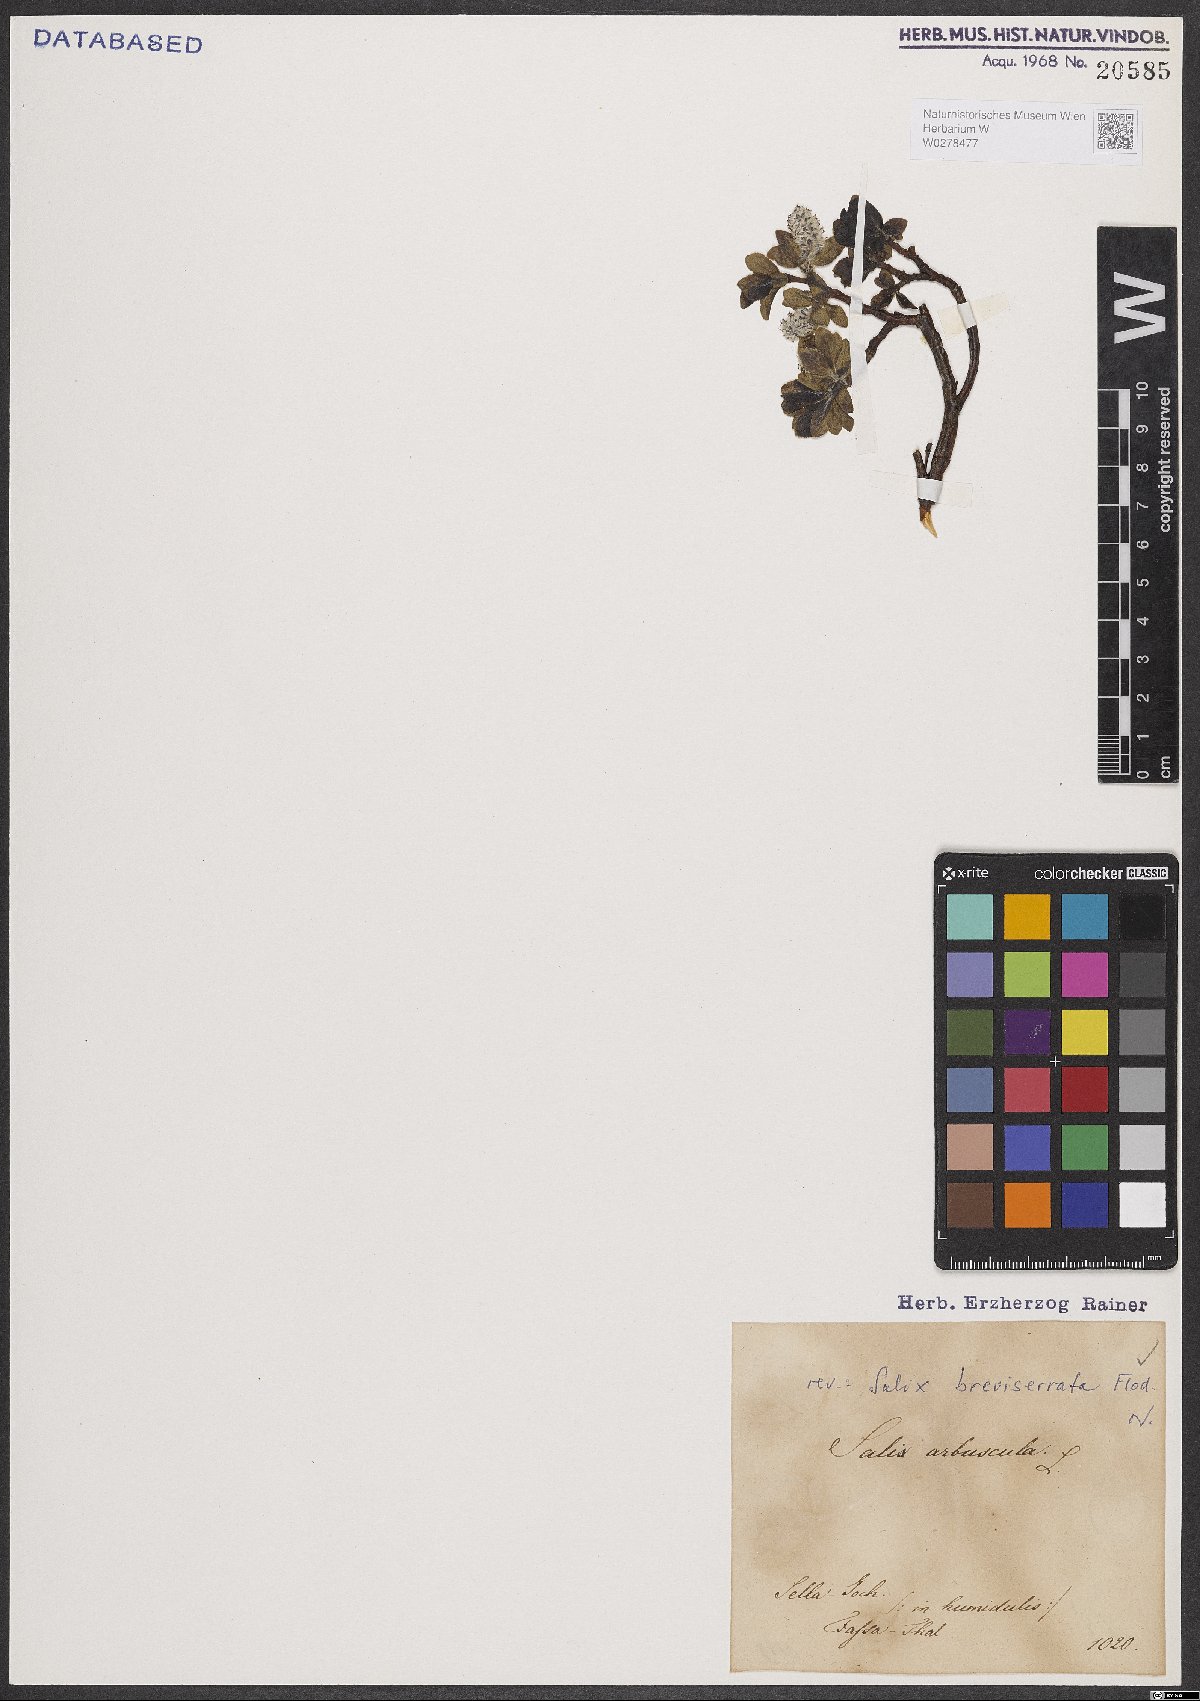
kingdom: Plantae
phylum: Tracheophyta
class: Magnoliopsida
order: Malpighiales
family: Salicaceae
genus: Salix
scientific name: Salix breviserrata
